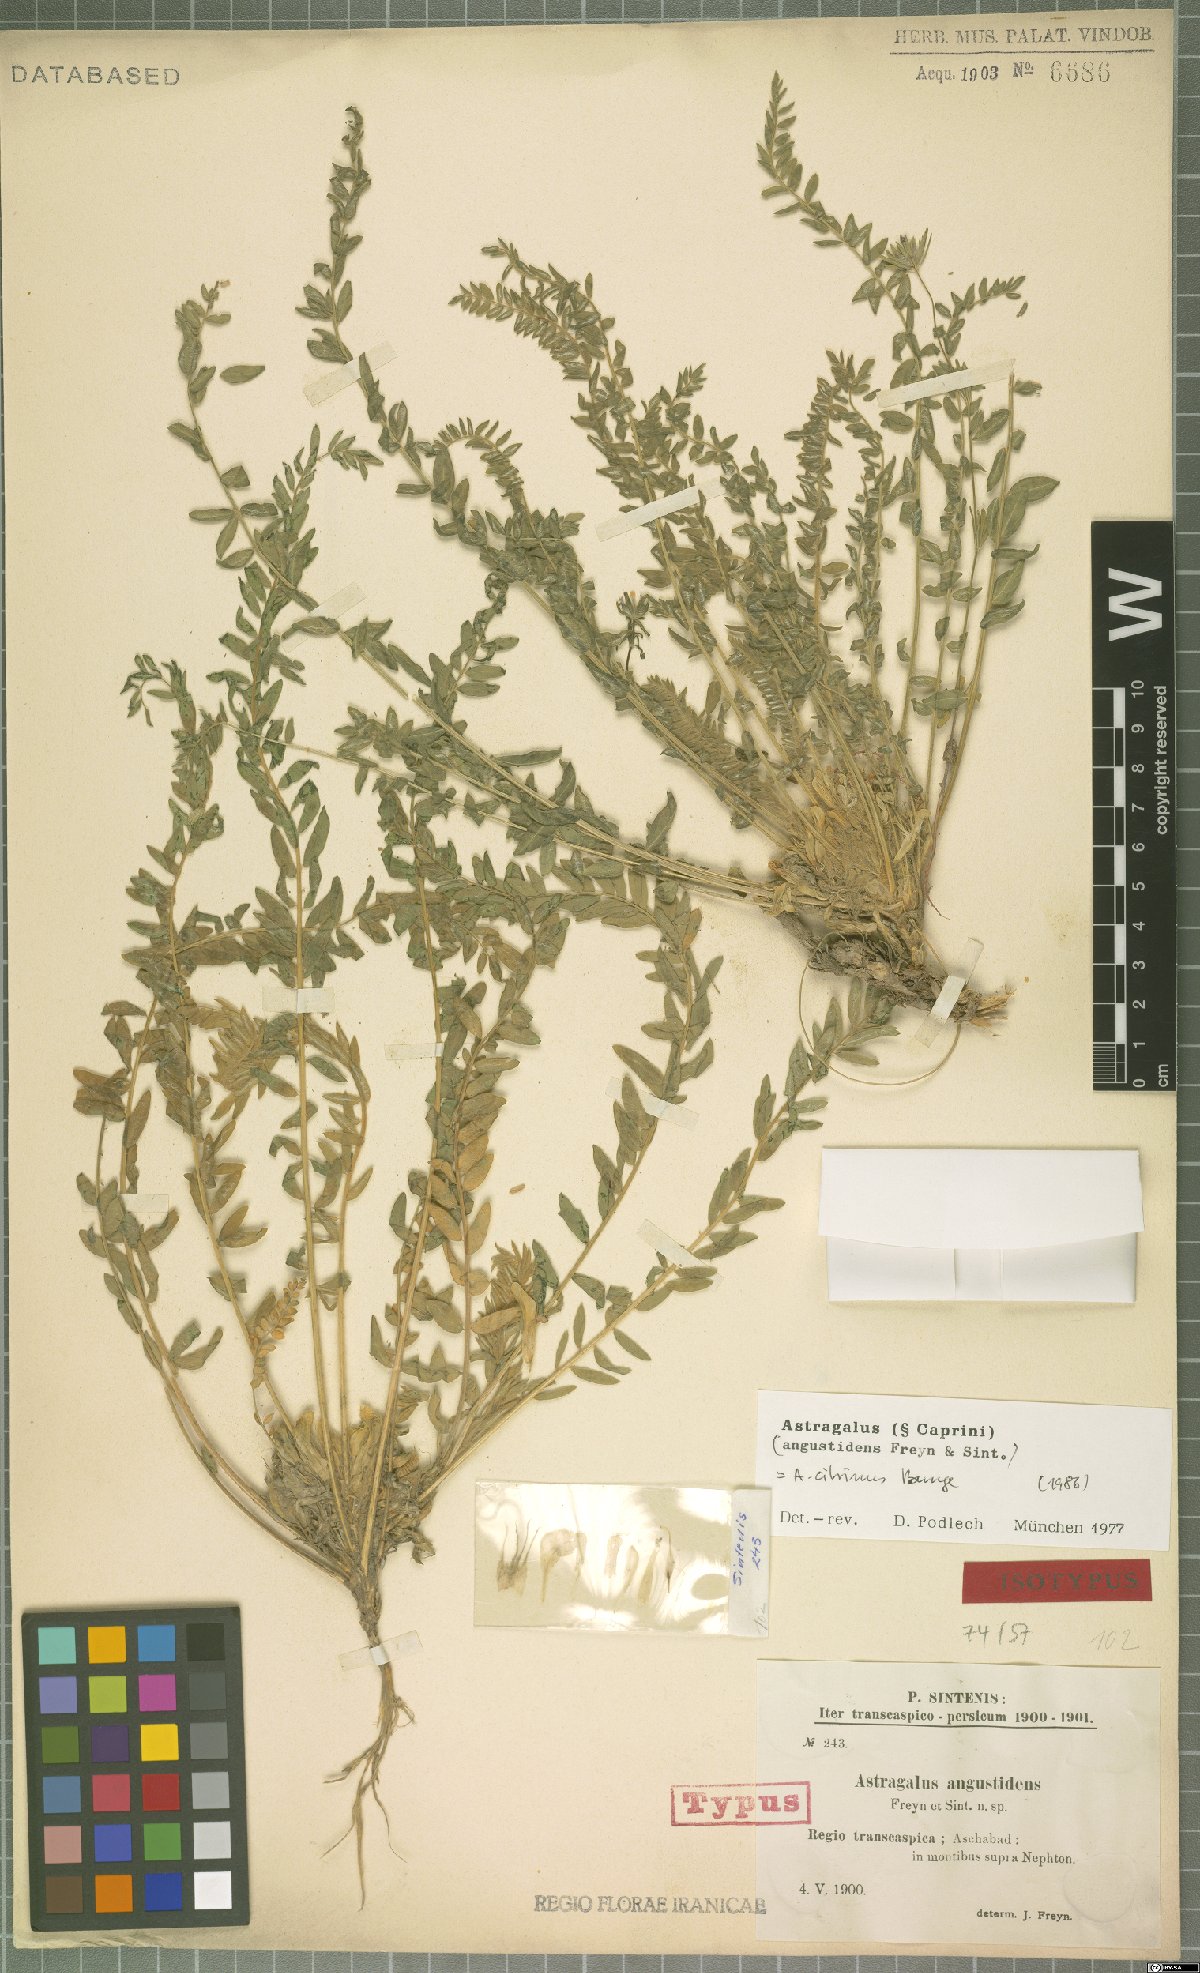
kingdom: Plantae
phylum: Tracheophyta
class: Magnoliopsida
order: Fabales
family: Fabaceae
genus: Astragalus
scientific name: Astragalus citrinus
